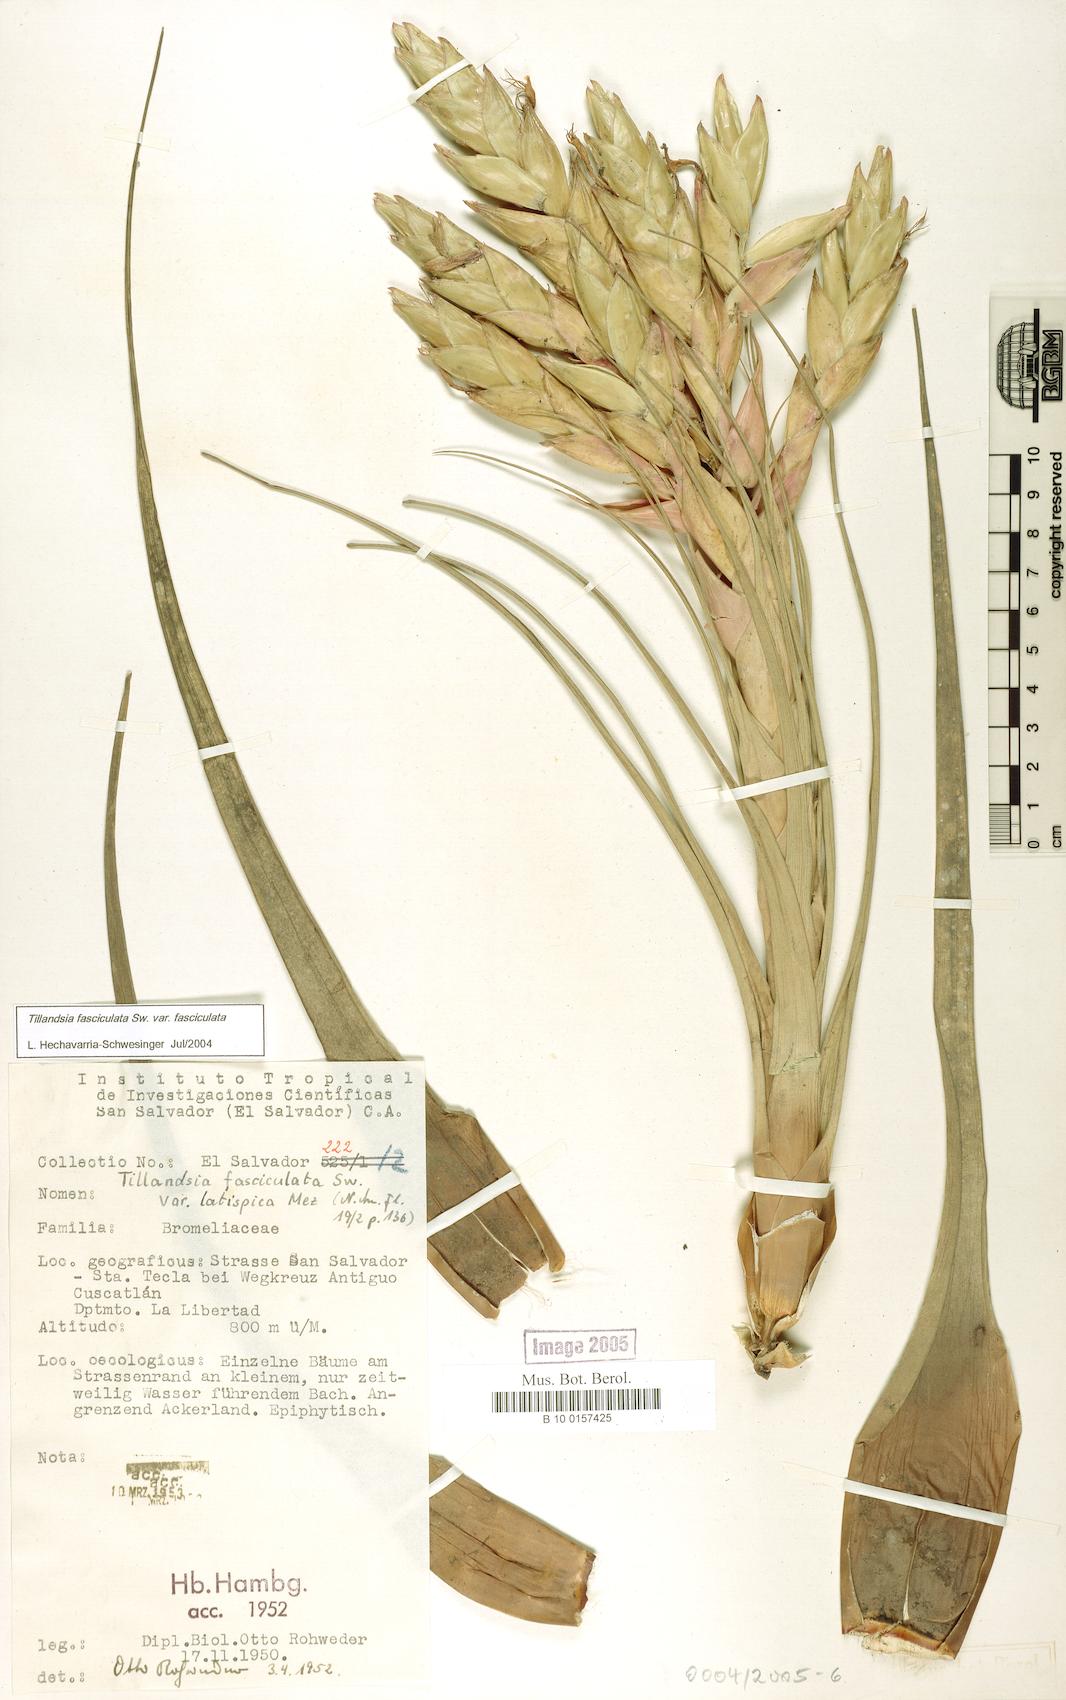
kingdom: Plantae
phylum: Tracheophyta
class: Liliopsida
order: Poales
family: Bromeliaceae
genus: Tillandsia
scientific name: Tillandsia fasciculata
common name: Giant airplant
